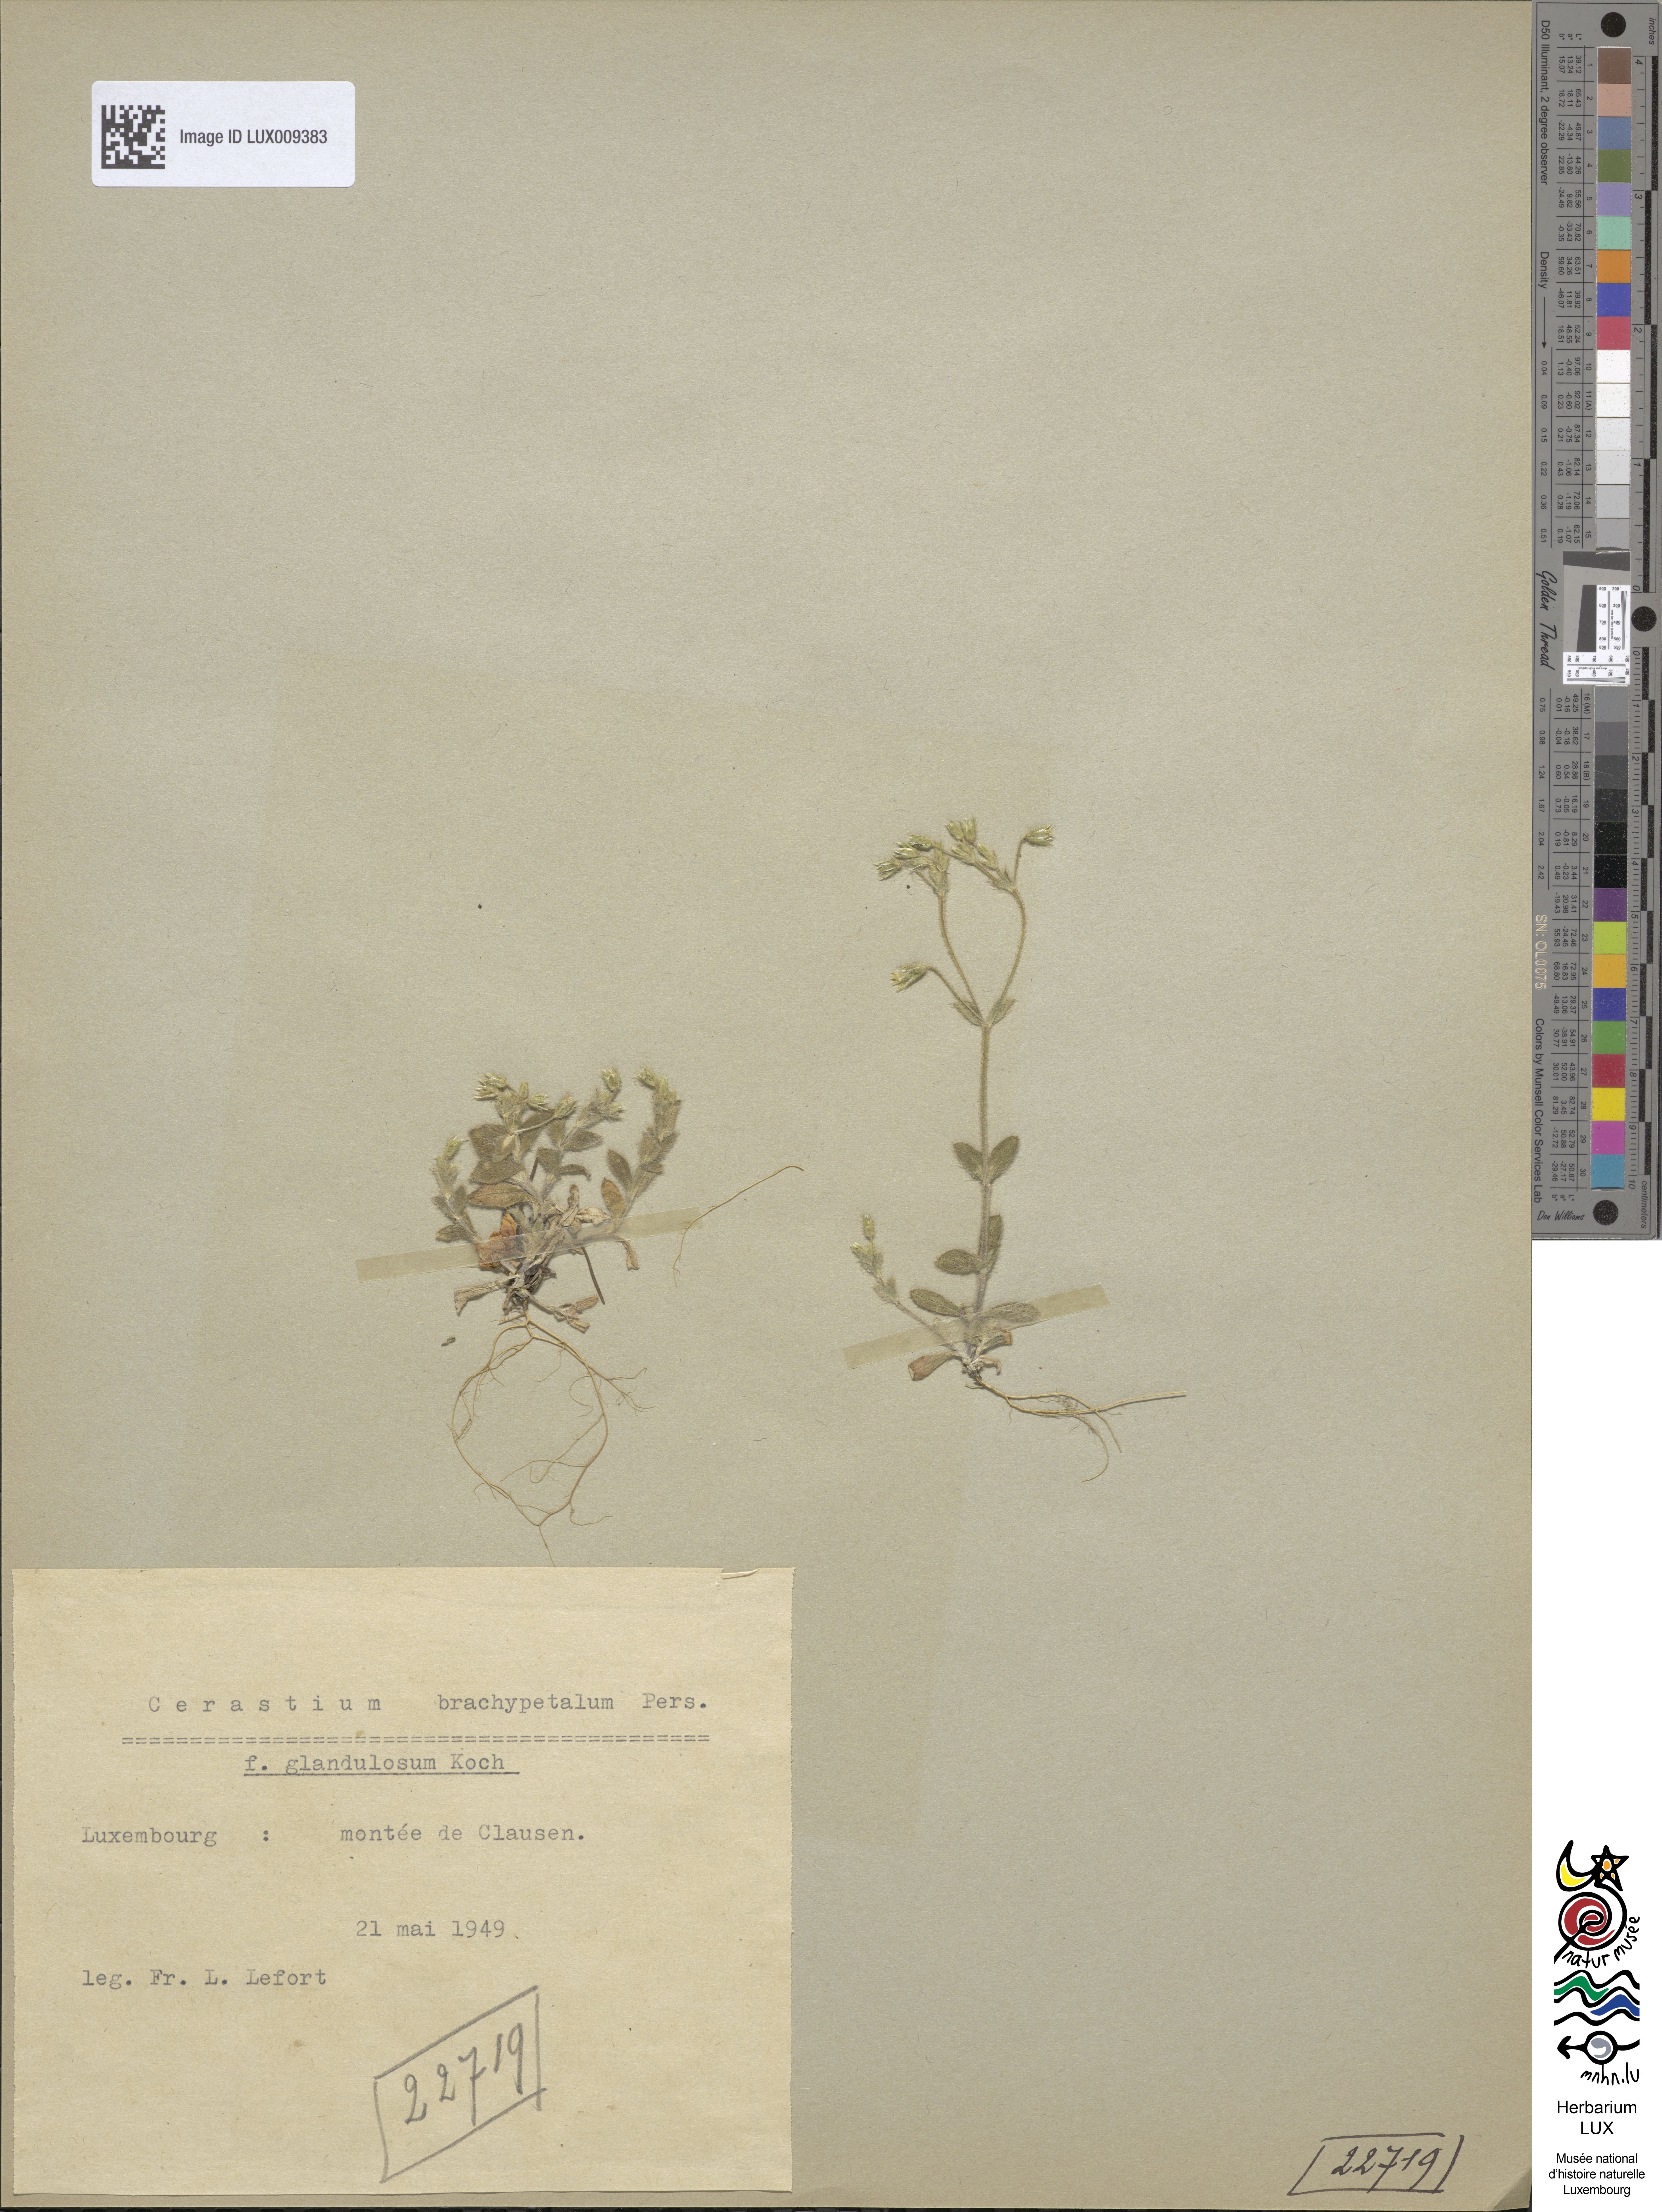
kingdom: Plantae
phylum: Tracheophyta
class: Magnoliopsida
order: Caryophyllales
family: Caryophyllaceae
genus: Cerastium
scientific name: Cerastium brachypetalum
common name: Grey mouse-ear
